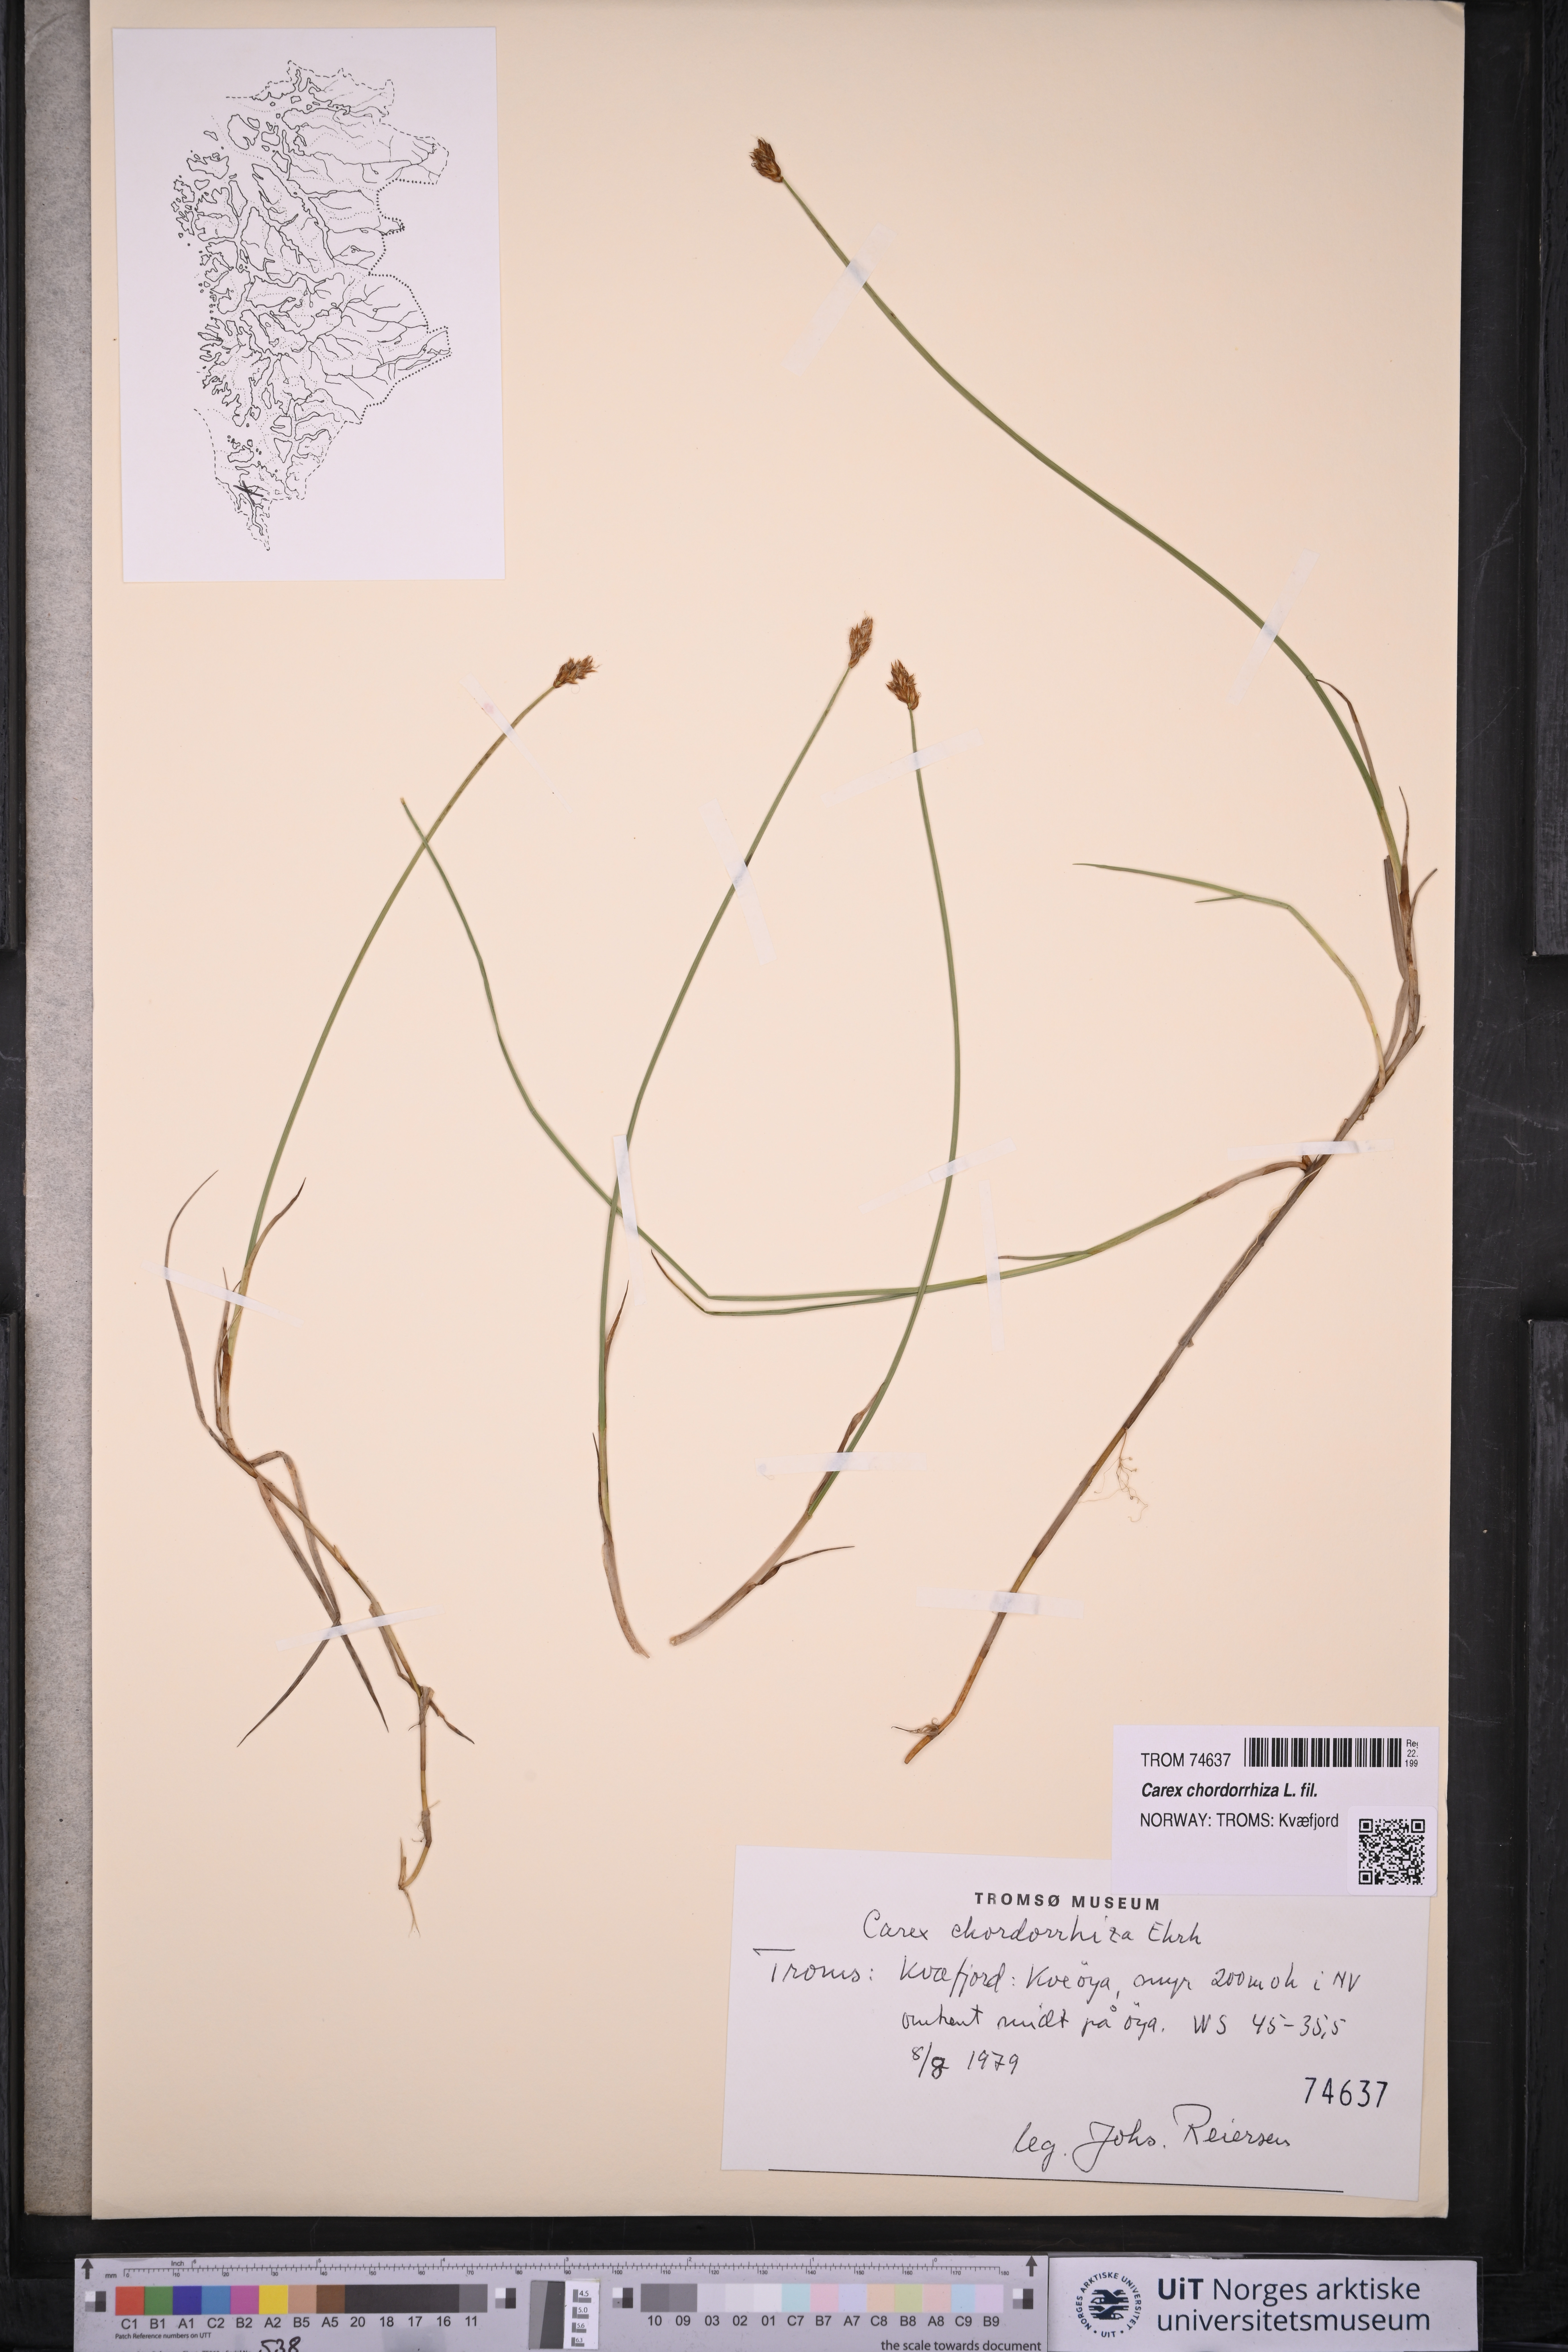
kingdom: Plantae
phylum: Tracheophyta
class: Liliopsida
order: Poales
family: Cyperaceae
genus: Carex
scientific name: Carex chordorrhiza
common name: String sedge
